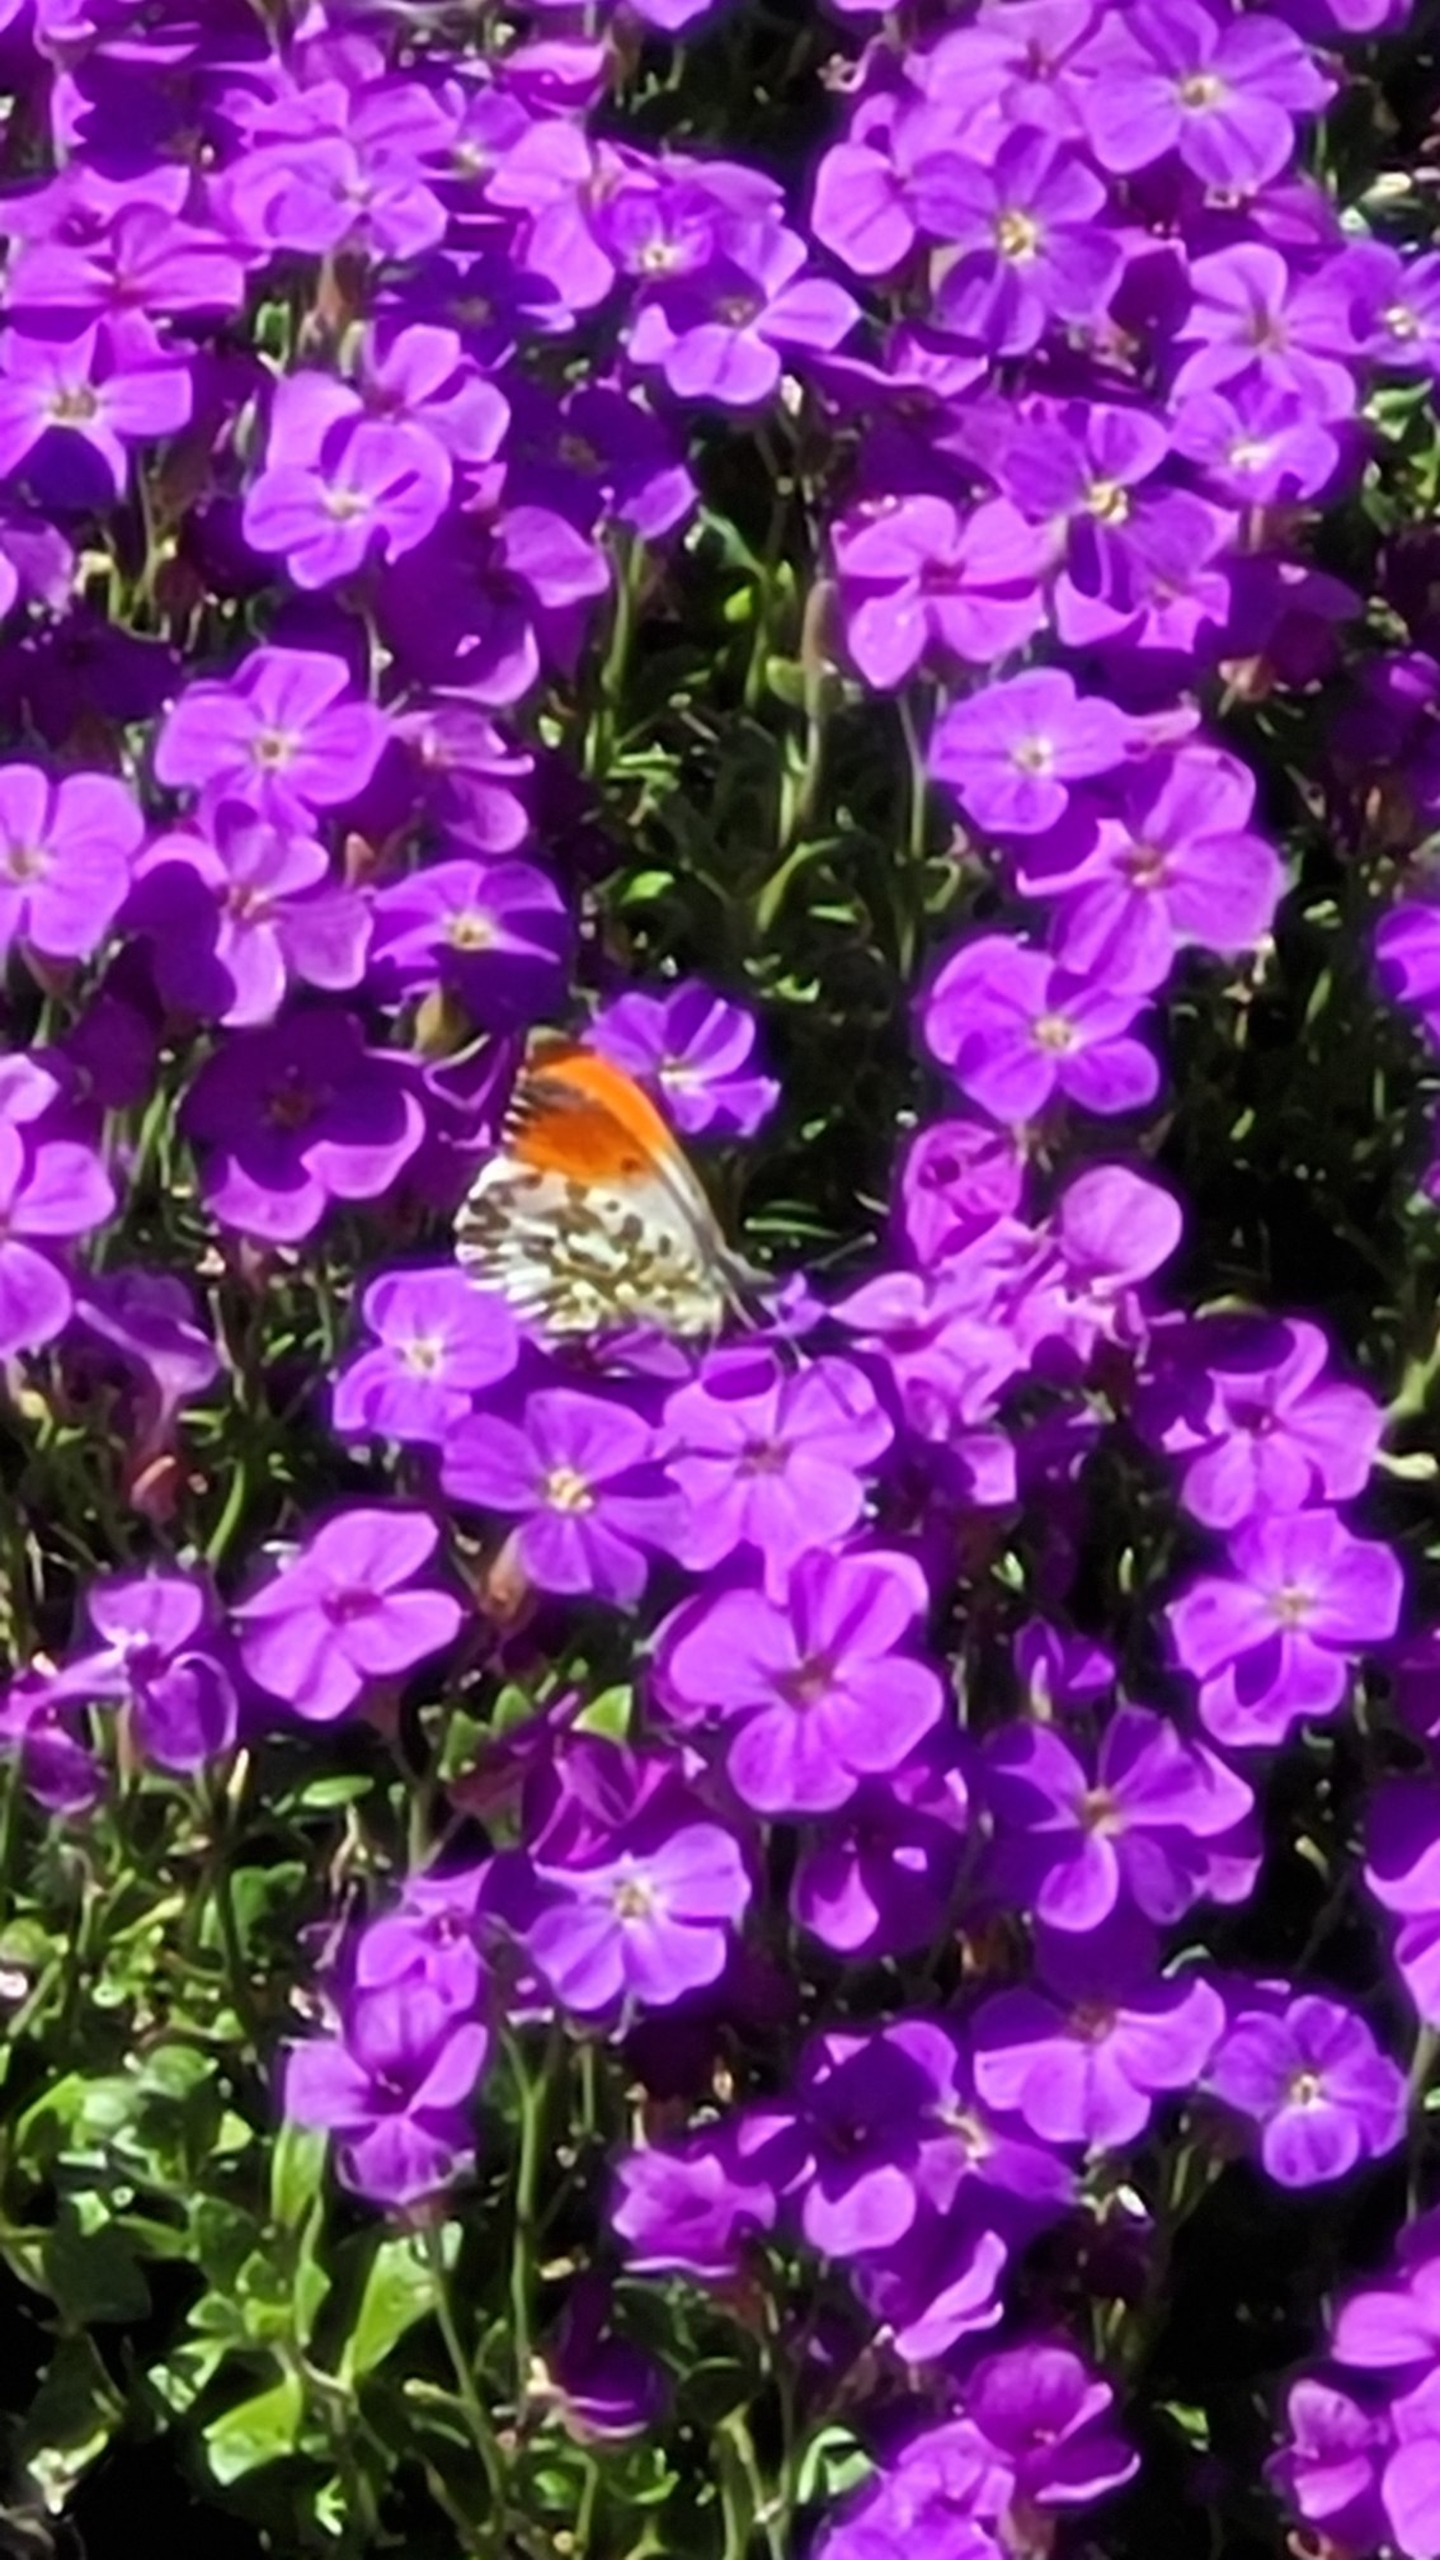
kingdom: Animalia
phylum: Arthropoda
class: Insecta
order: Lepidoptera
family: Pieridae
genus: Anthocharis
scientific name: Anthocharis cardamines
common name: Aurora
